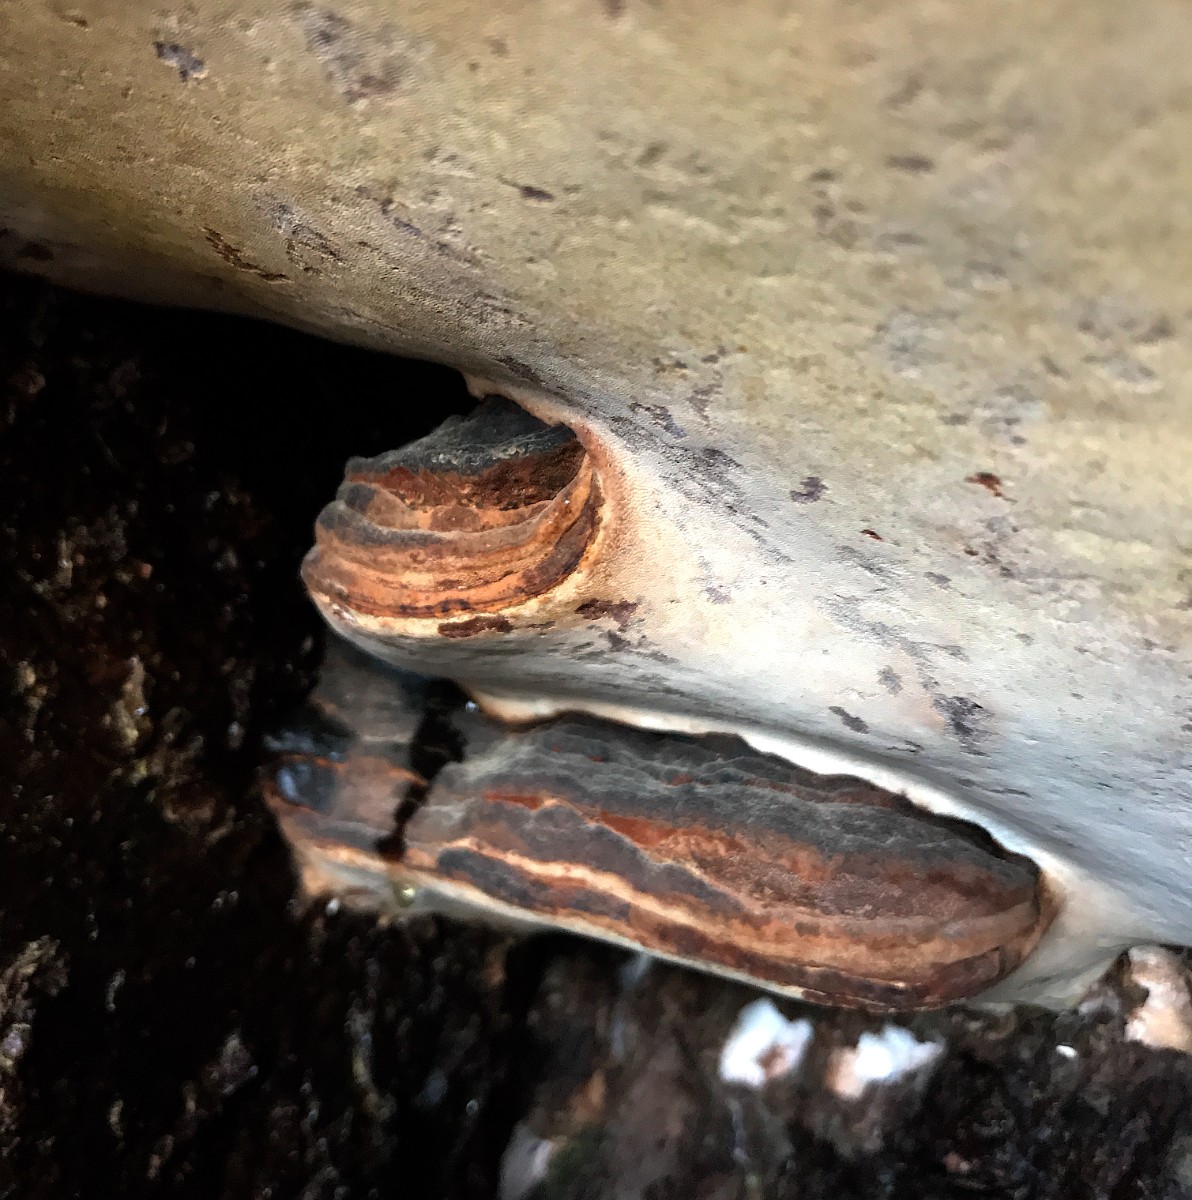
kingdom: Fungi
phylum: Basidiomycota
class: Agaricomycetes
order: Polyporales
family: Polyporaceae
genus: Ganoderma
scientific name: Ganoderma adspersum
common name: grov lakporesvamp
